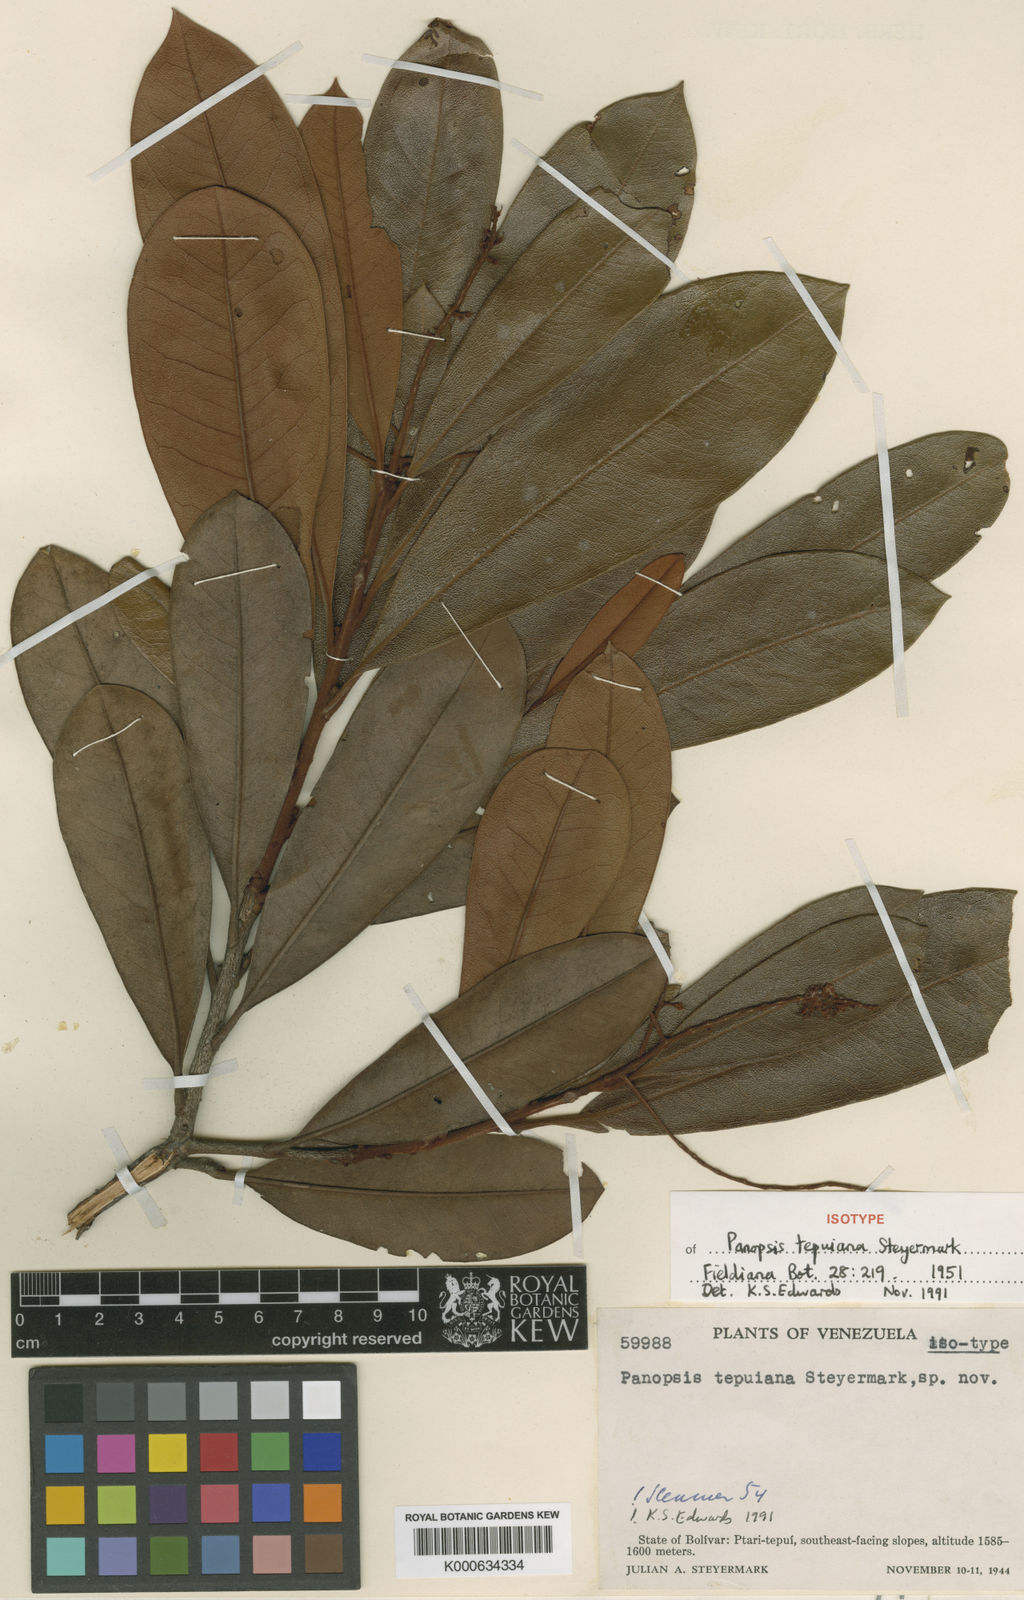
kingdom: Plantae
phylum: Tracheophyta
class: Magnoliopsida
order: Proteales
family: Proteaceae
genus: Panopsis
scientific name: Panopsis tepuiana
